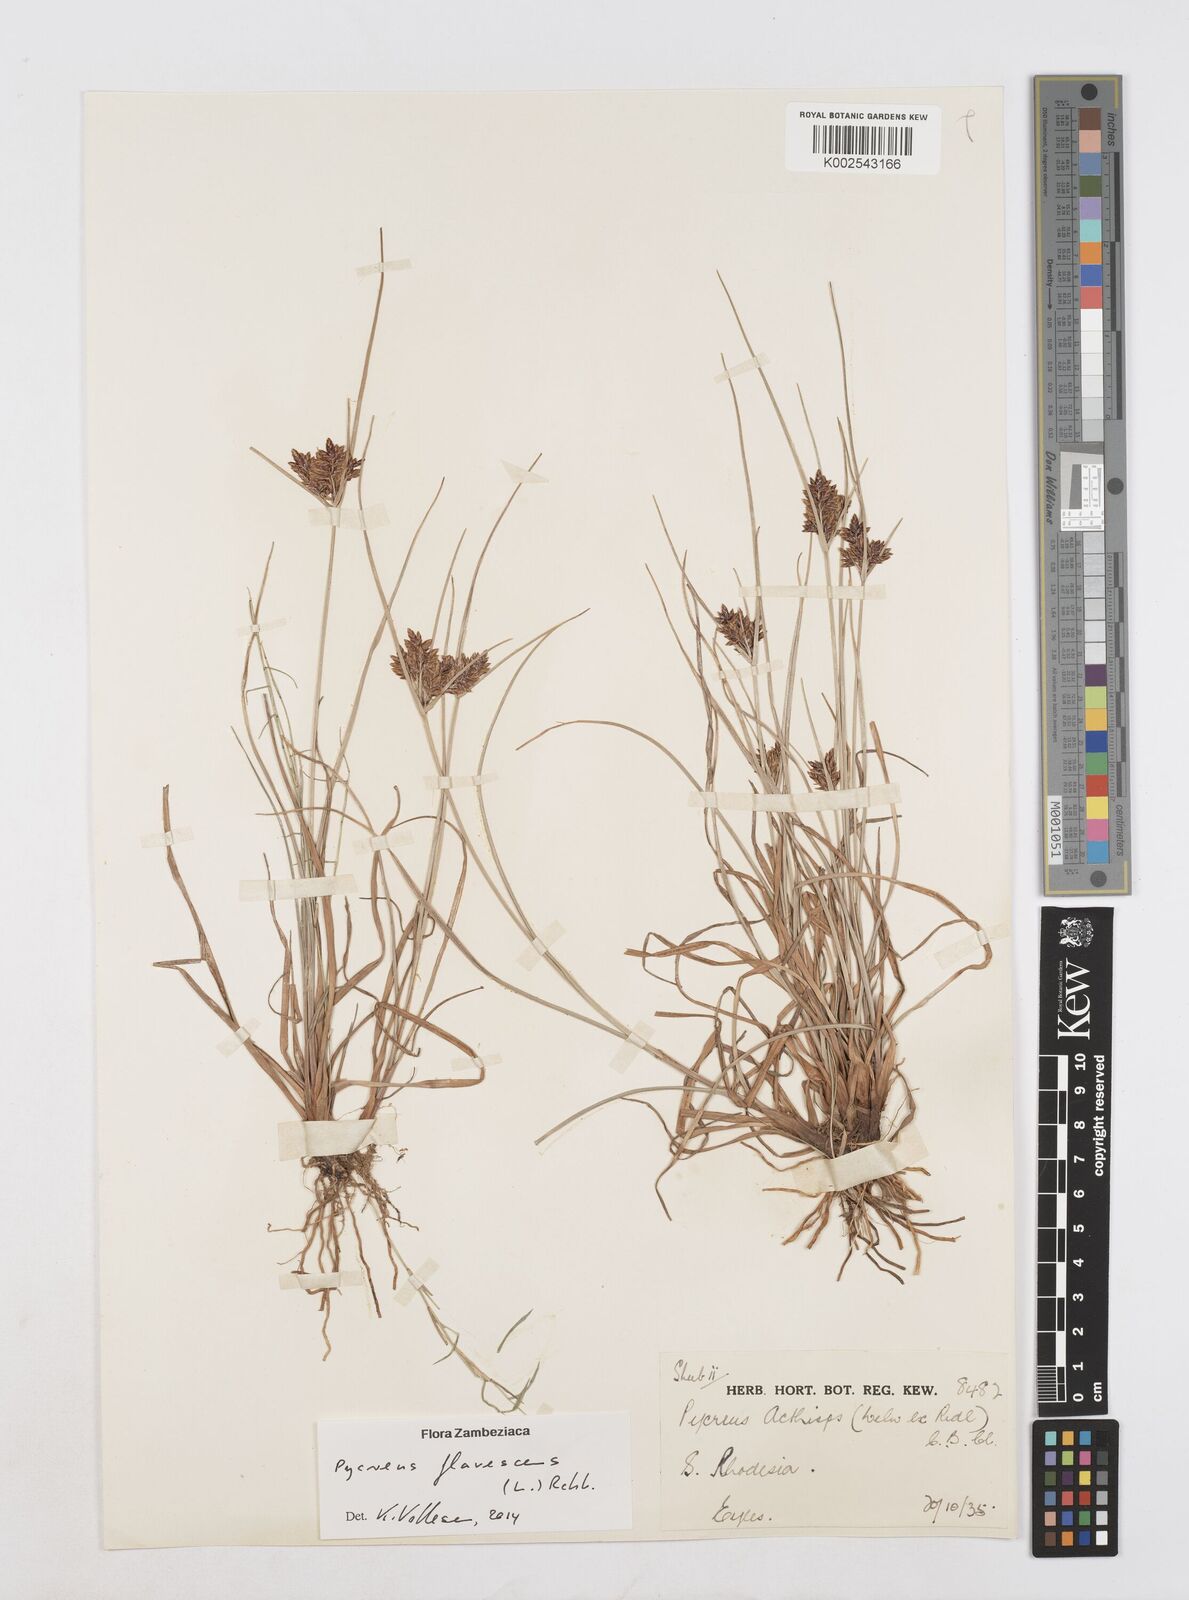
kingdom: Plantae
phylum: Tracheophyta
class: Liliopsida
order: Poales
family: Cyperaceae
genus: Cyperus
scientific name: Cyperus flavescens
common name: Yellow galingale
